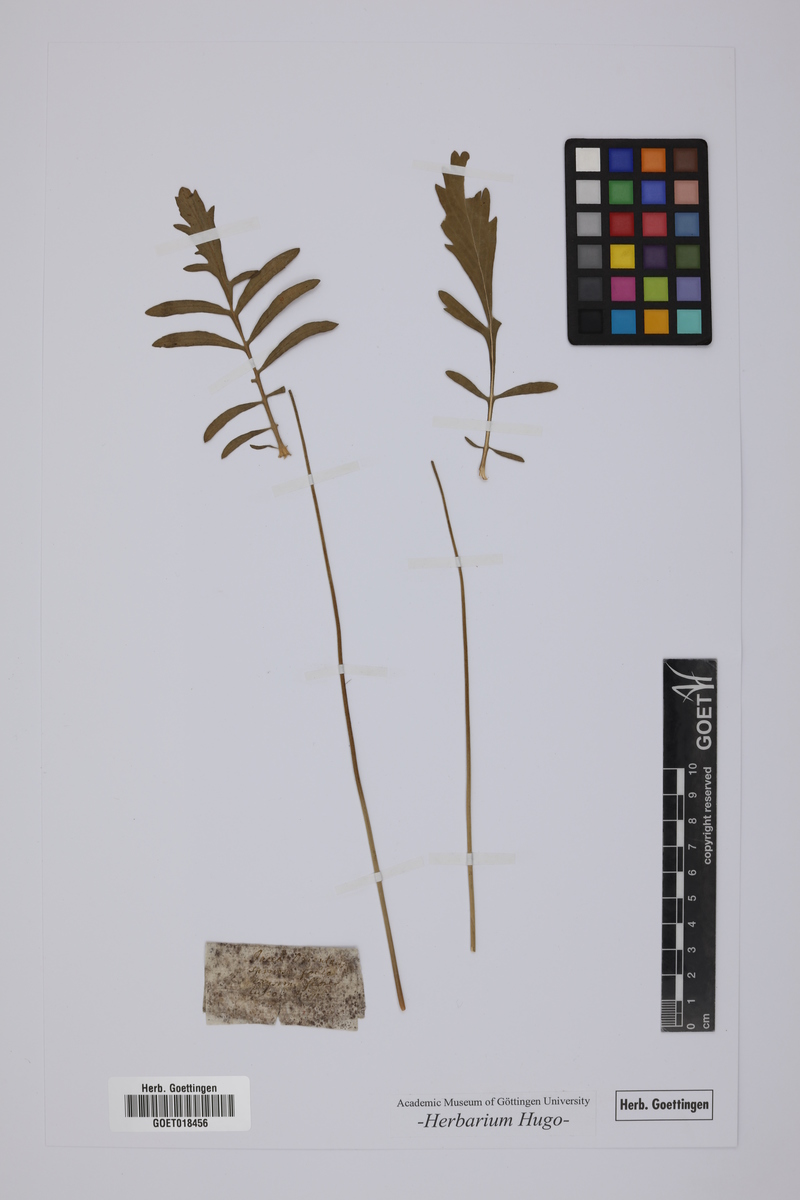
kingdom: Plantae
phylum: Tracheophyta
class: Magnoliopsida
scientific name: Magnoliopsida
